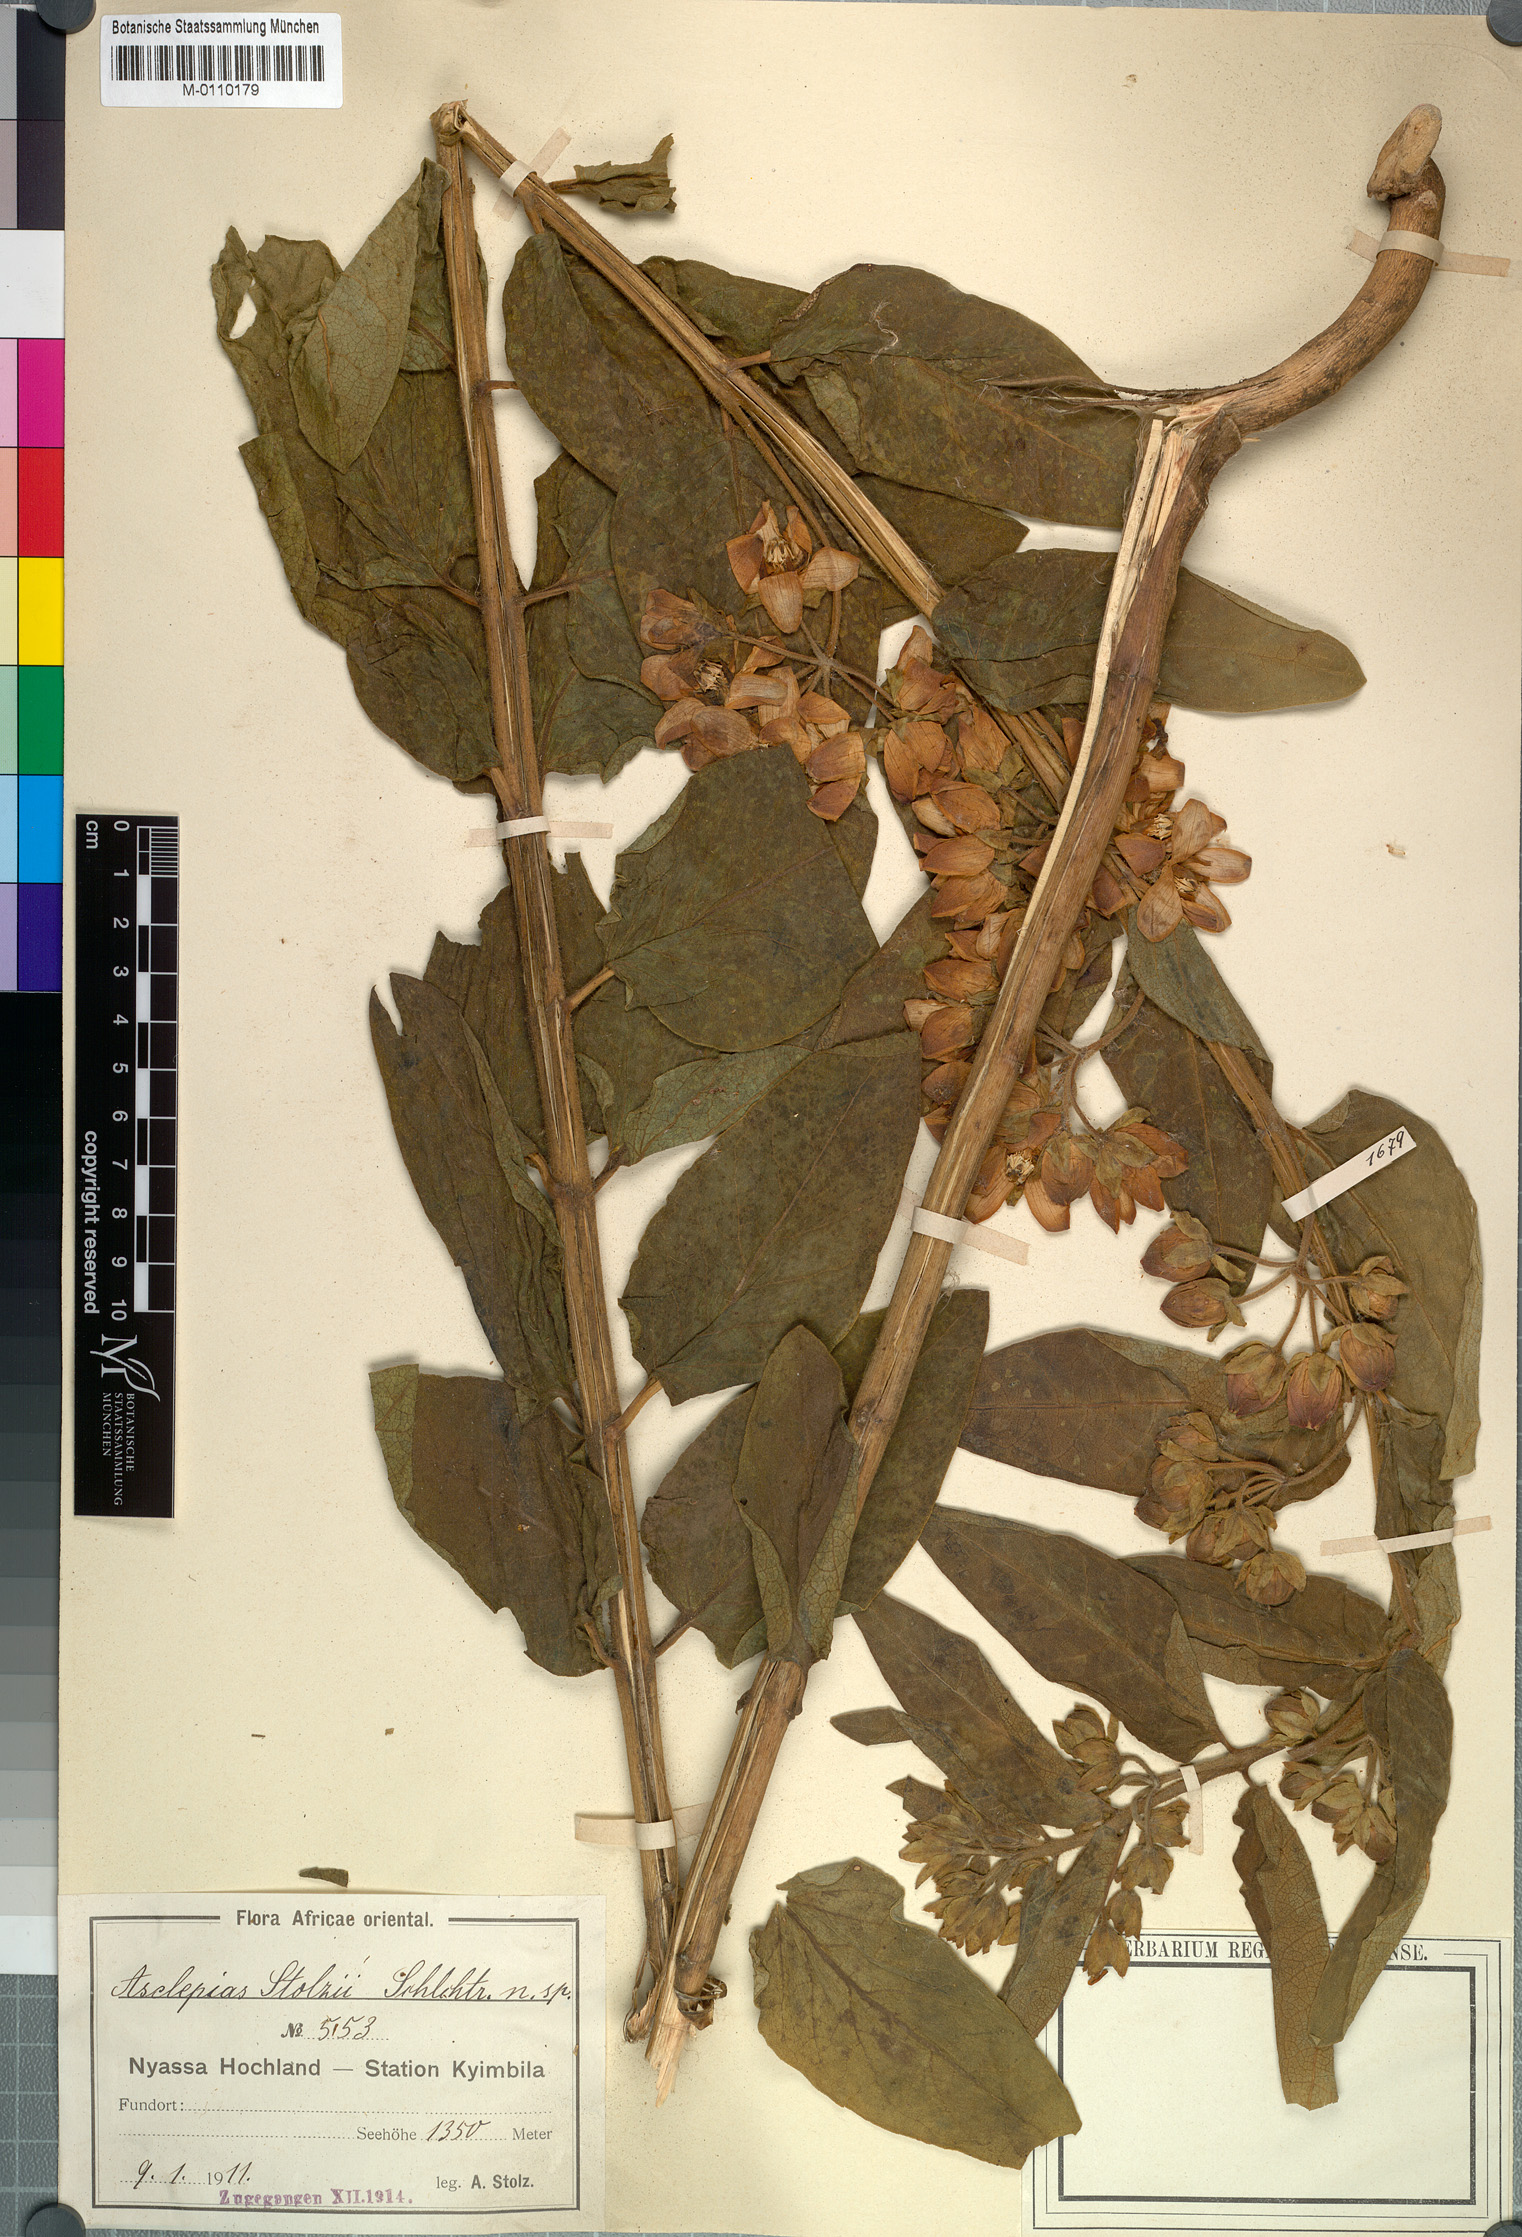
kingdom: Plantae
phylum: Tracheophyta
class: Magnoliopsida
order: Gentianales
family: Apocynaceae
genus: Gomphocarpus
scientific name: Gomphocarpus swynnertonii
